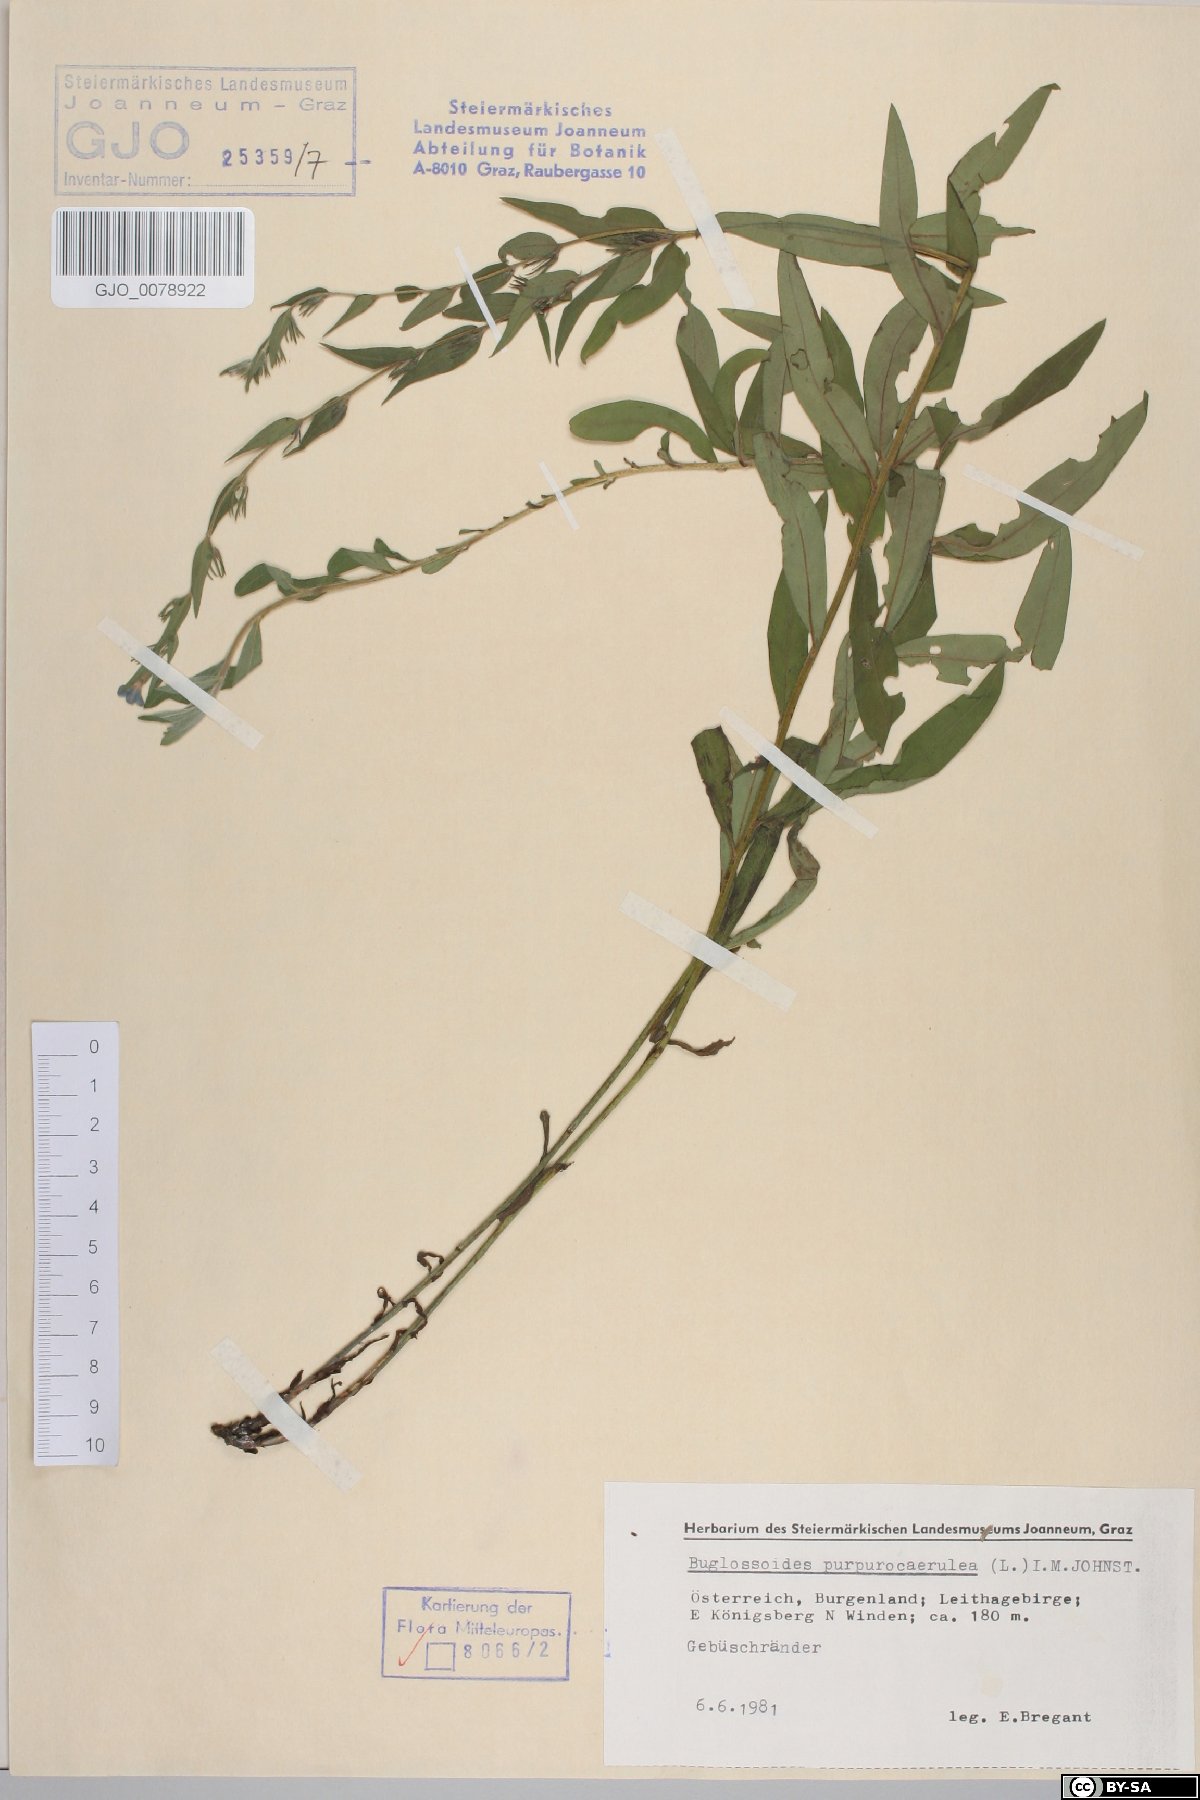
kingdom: Plantae
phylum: Tracheophyta
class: Magnoliopsida
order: Boraginales
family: Boraginaceae
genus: Aegonychon
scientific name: Aegonychon purpurocaeruleum
